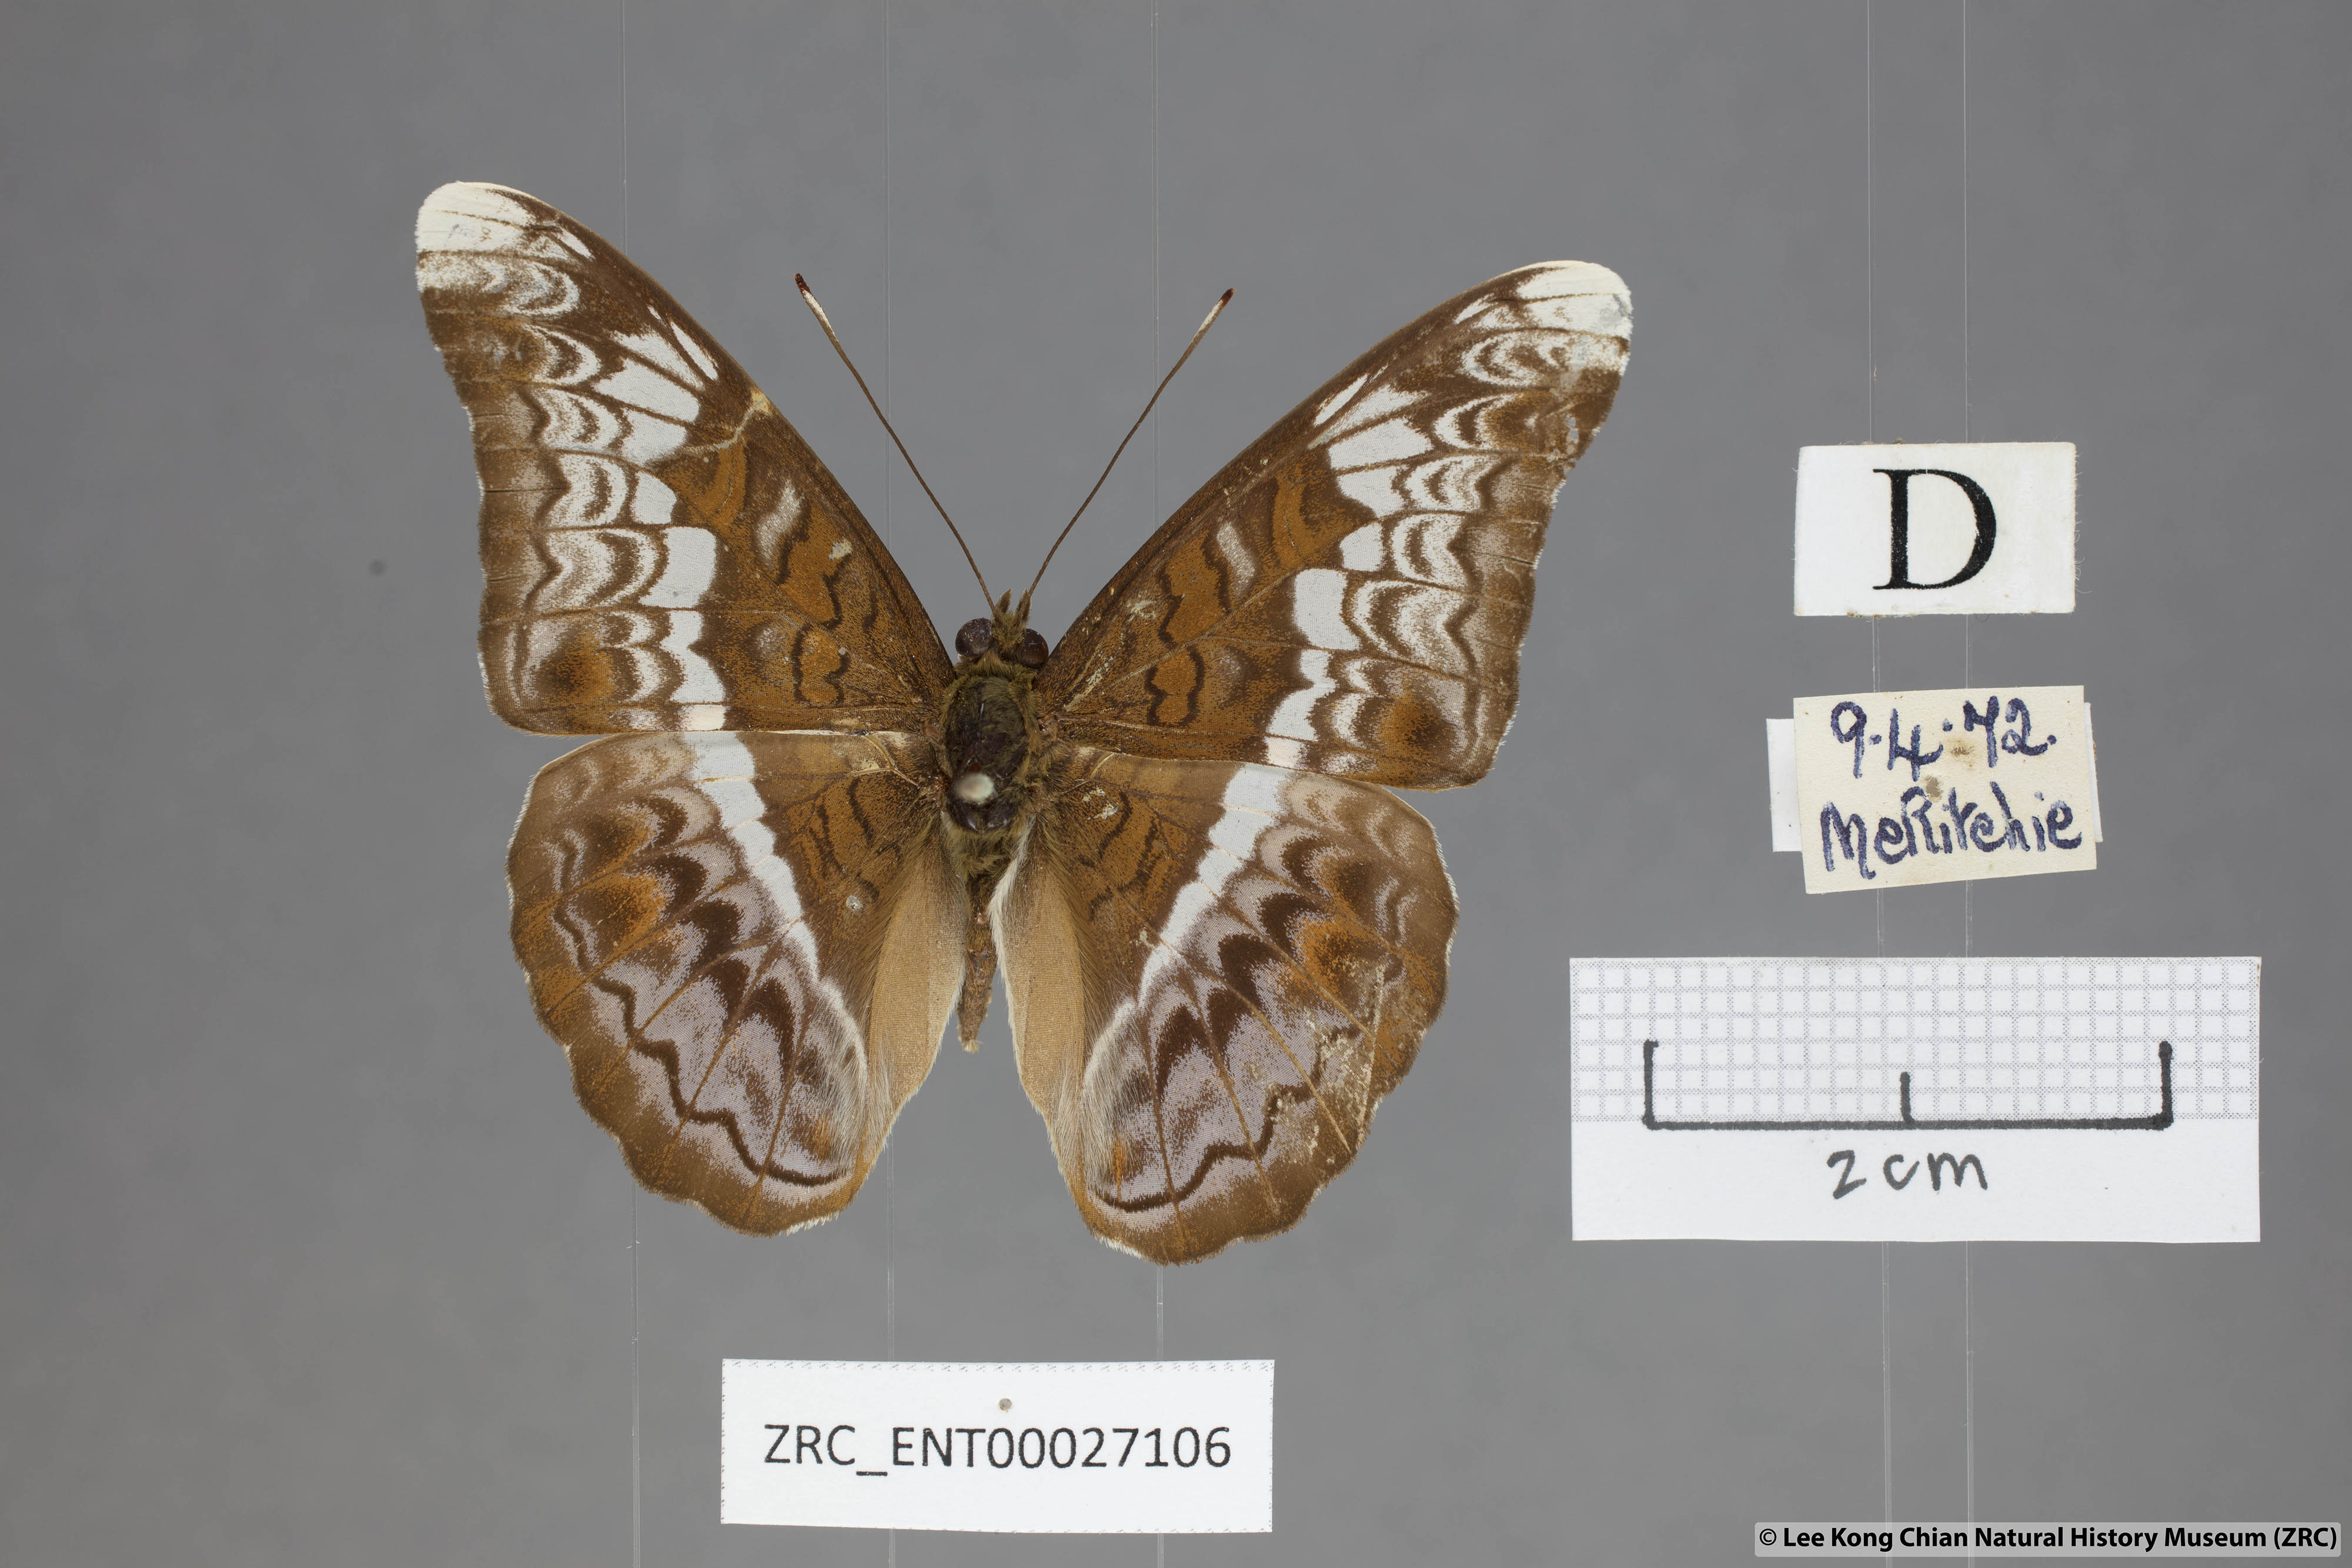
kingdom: Animalia
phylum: Arthropoda
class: Insecta
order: Lepidoptera
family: Nymphalidae
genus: Lebadea
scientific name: Lebadea martha
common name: Knight
